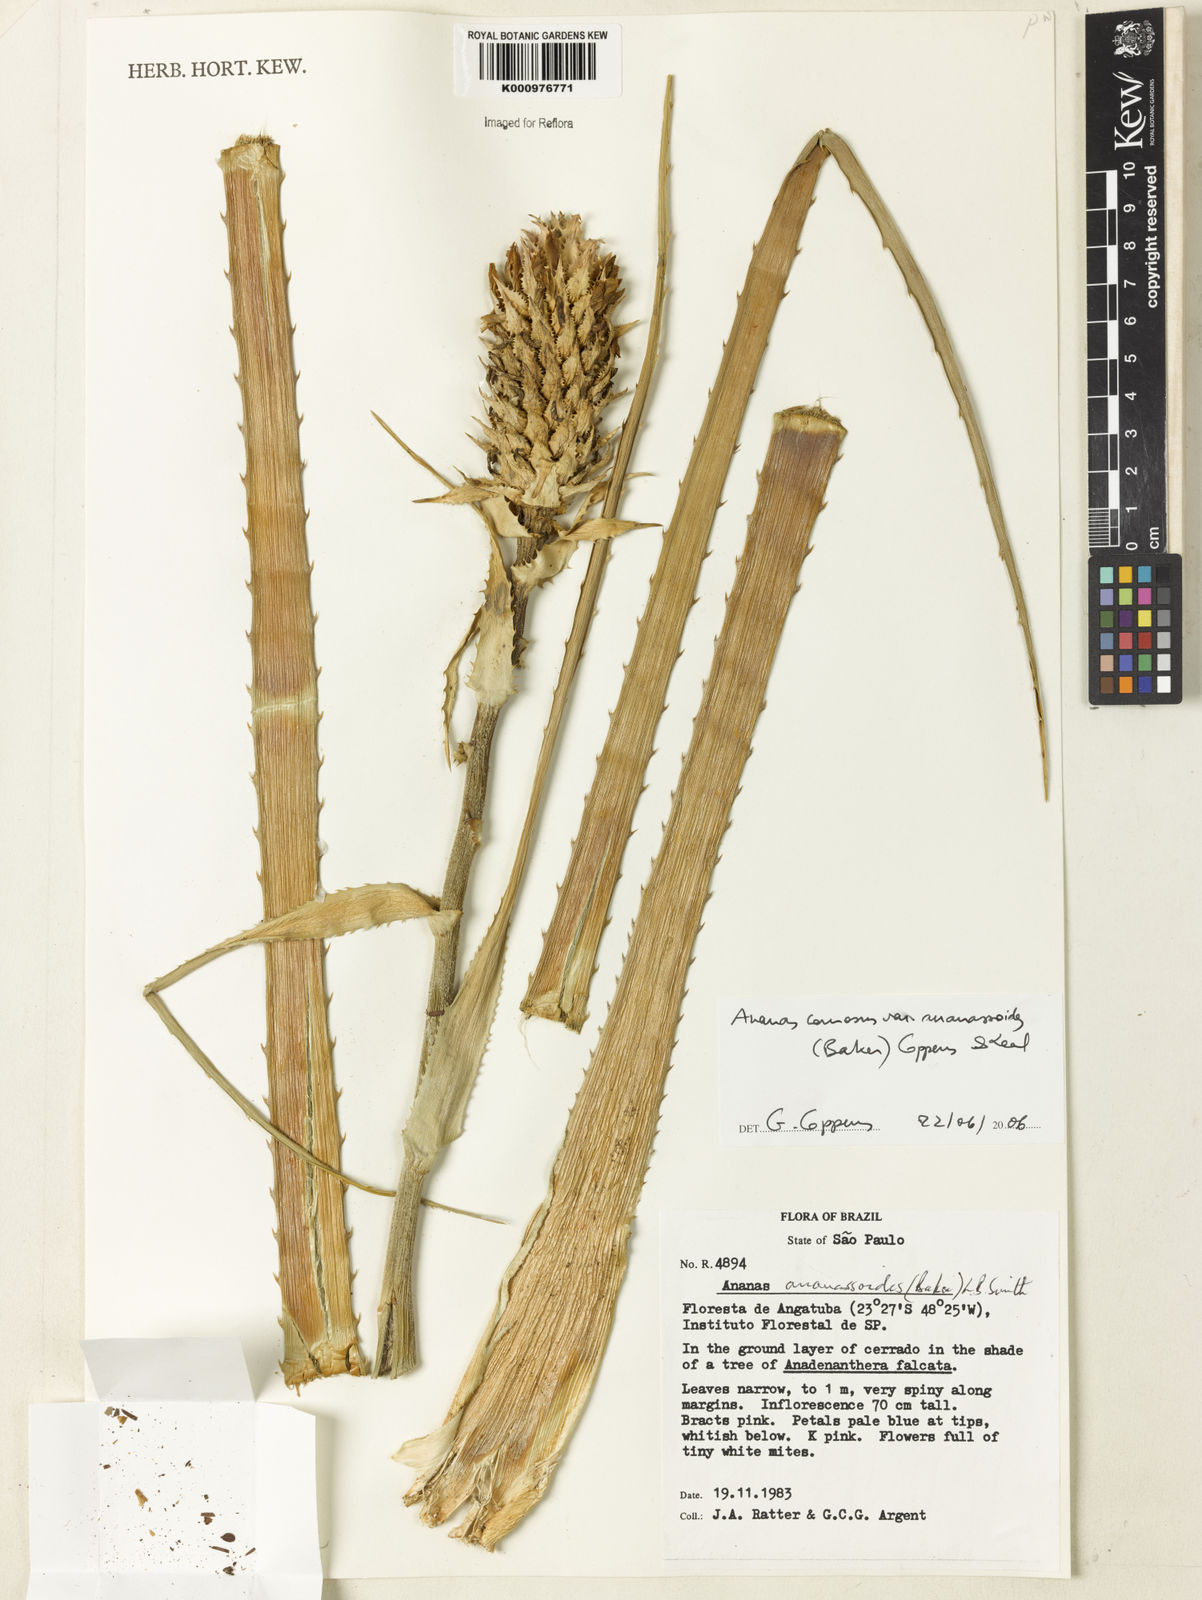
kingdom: Plantae
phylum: Tracheophyta
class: Liliopsida
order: Poales
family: Bromeliaceae
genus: Ananas
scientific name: Ananas comosus
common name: Pineapple
